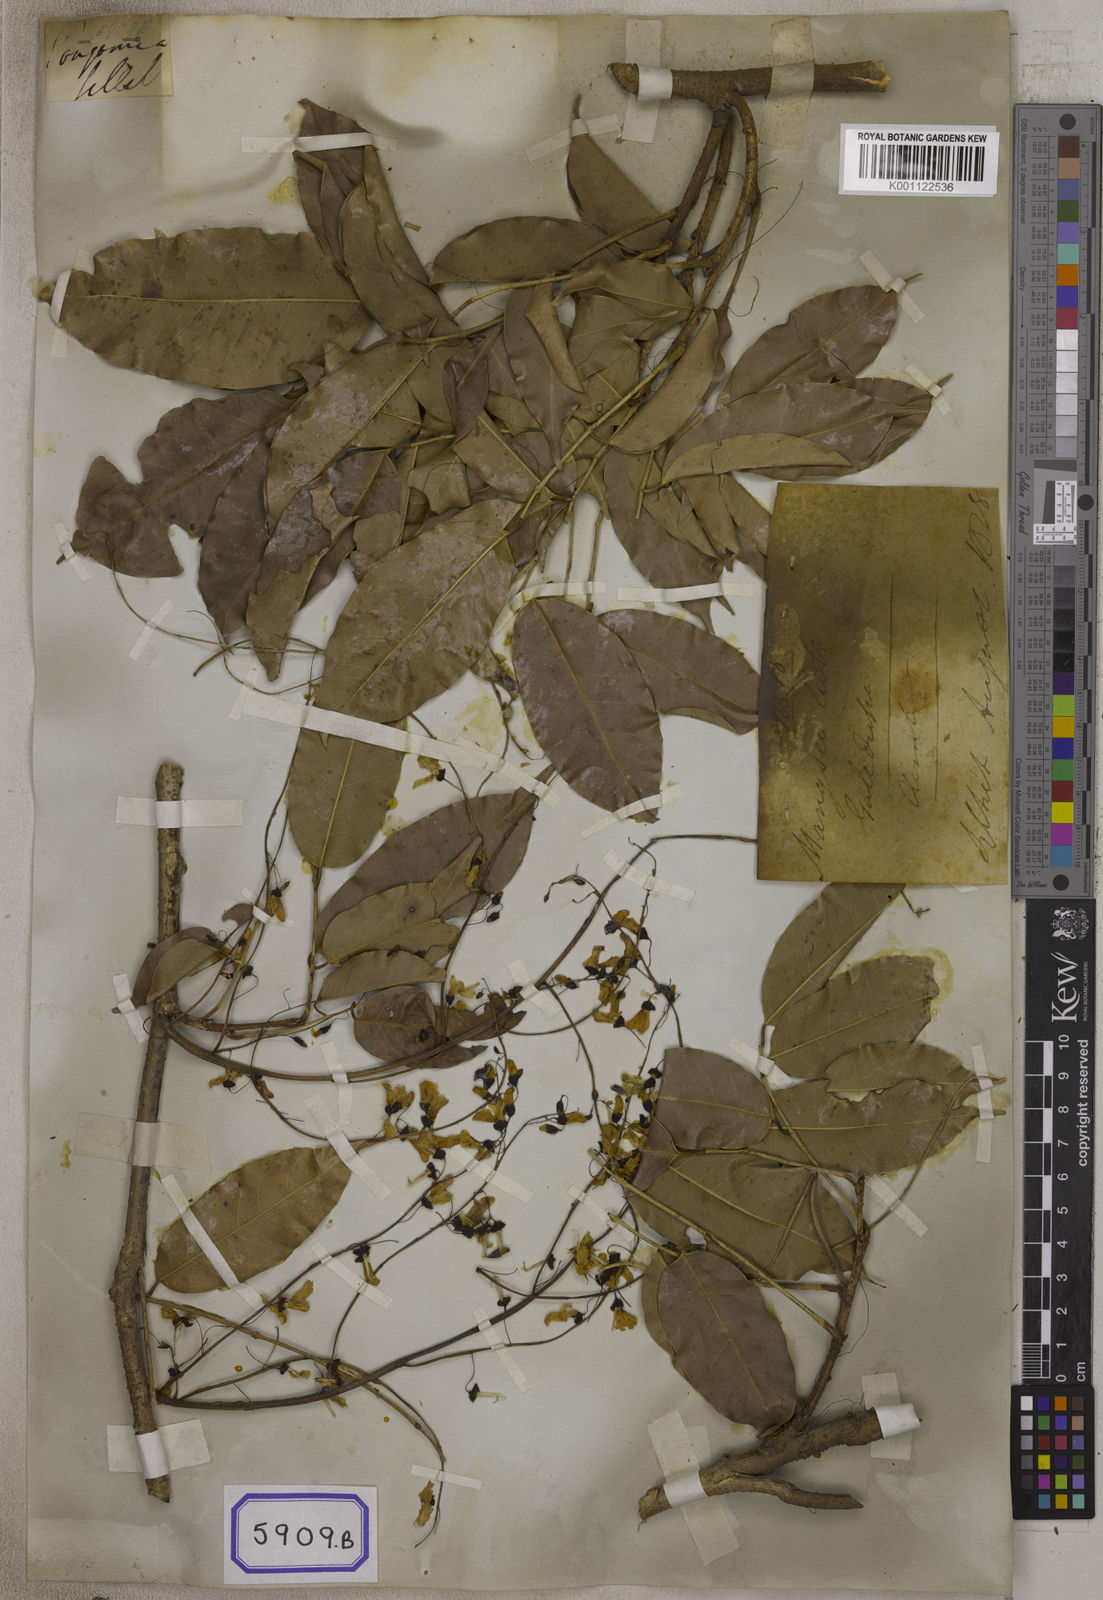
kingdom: Plantae
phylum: Tracheophyta
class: Magnoliopsida
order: Fabales
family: Fabaceae
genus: Pongamia
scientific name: Pongamia
